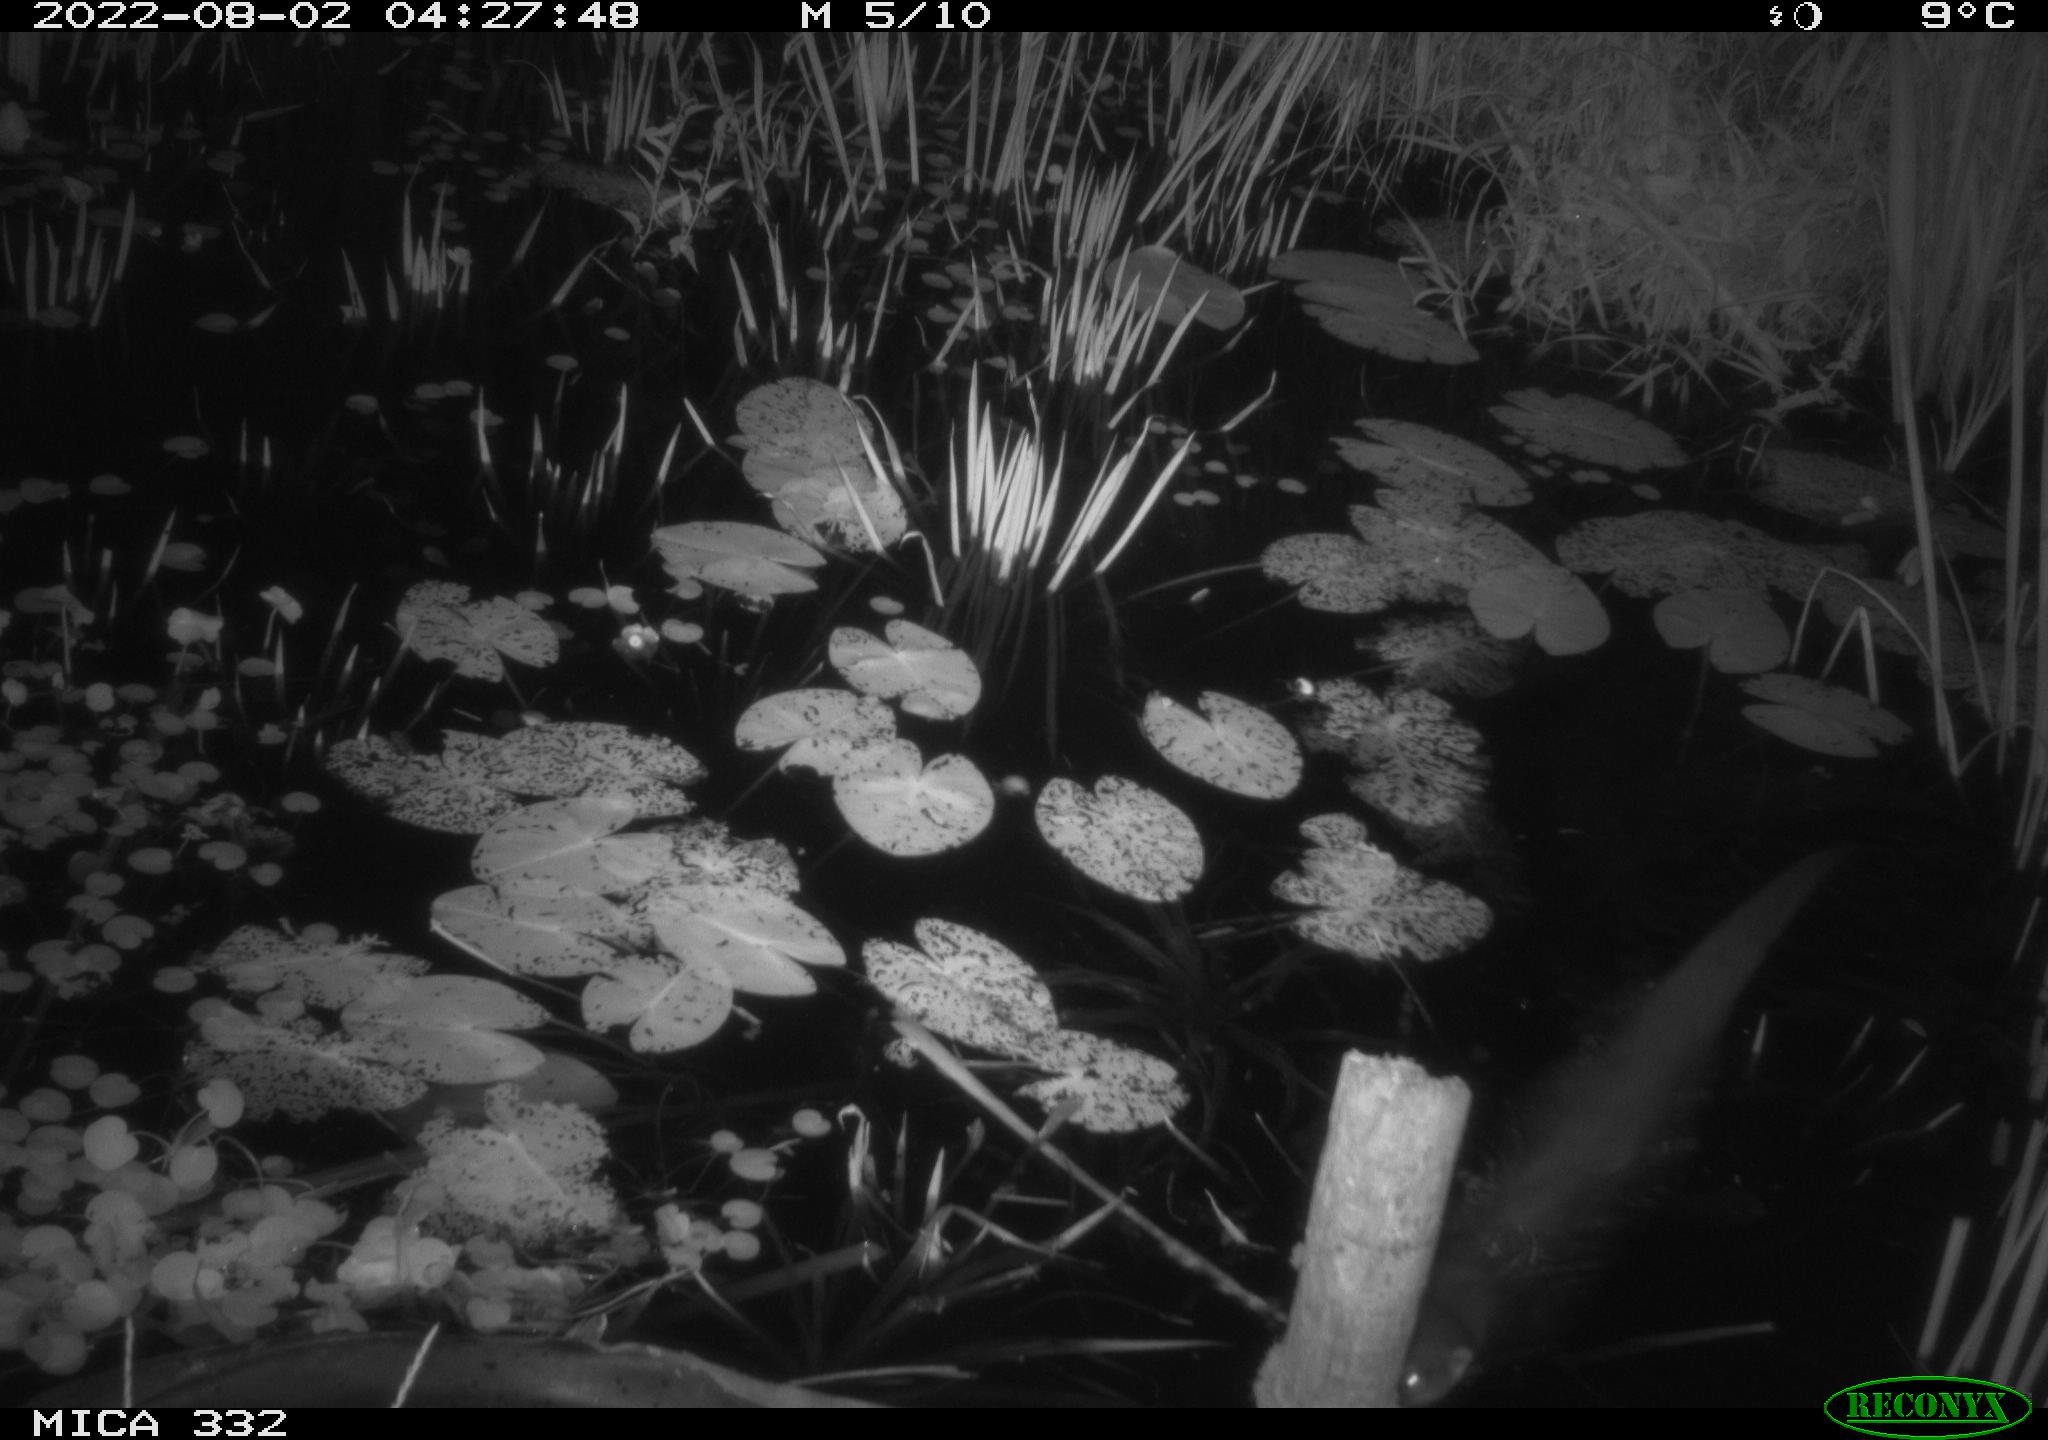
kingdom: Animalia
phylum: Chordata
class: Mammalia
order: Carnivora
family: Mustelidae
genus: Lutra
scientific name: Lutra lutra
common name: European otter
